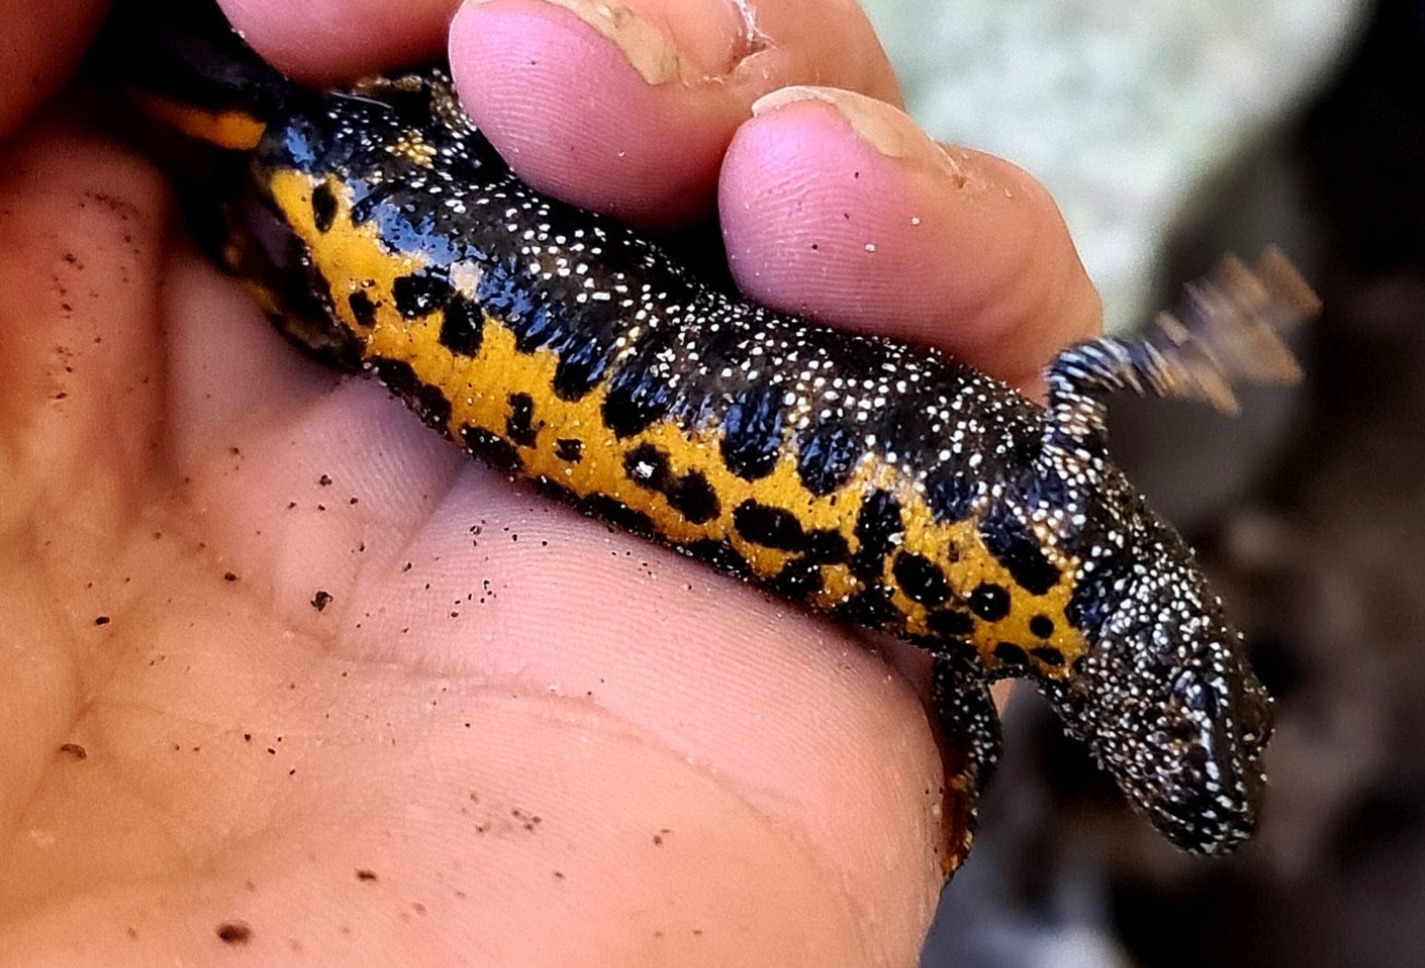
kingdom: Animalia
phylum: Chordata
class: Amphibia
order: Caudata
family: Salamandridae
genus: Triturus
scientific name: Triturus cristatus
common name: Stor vandsalamander
